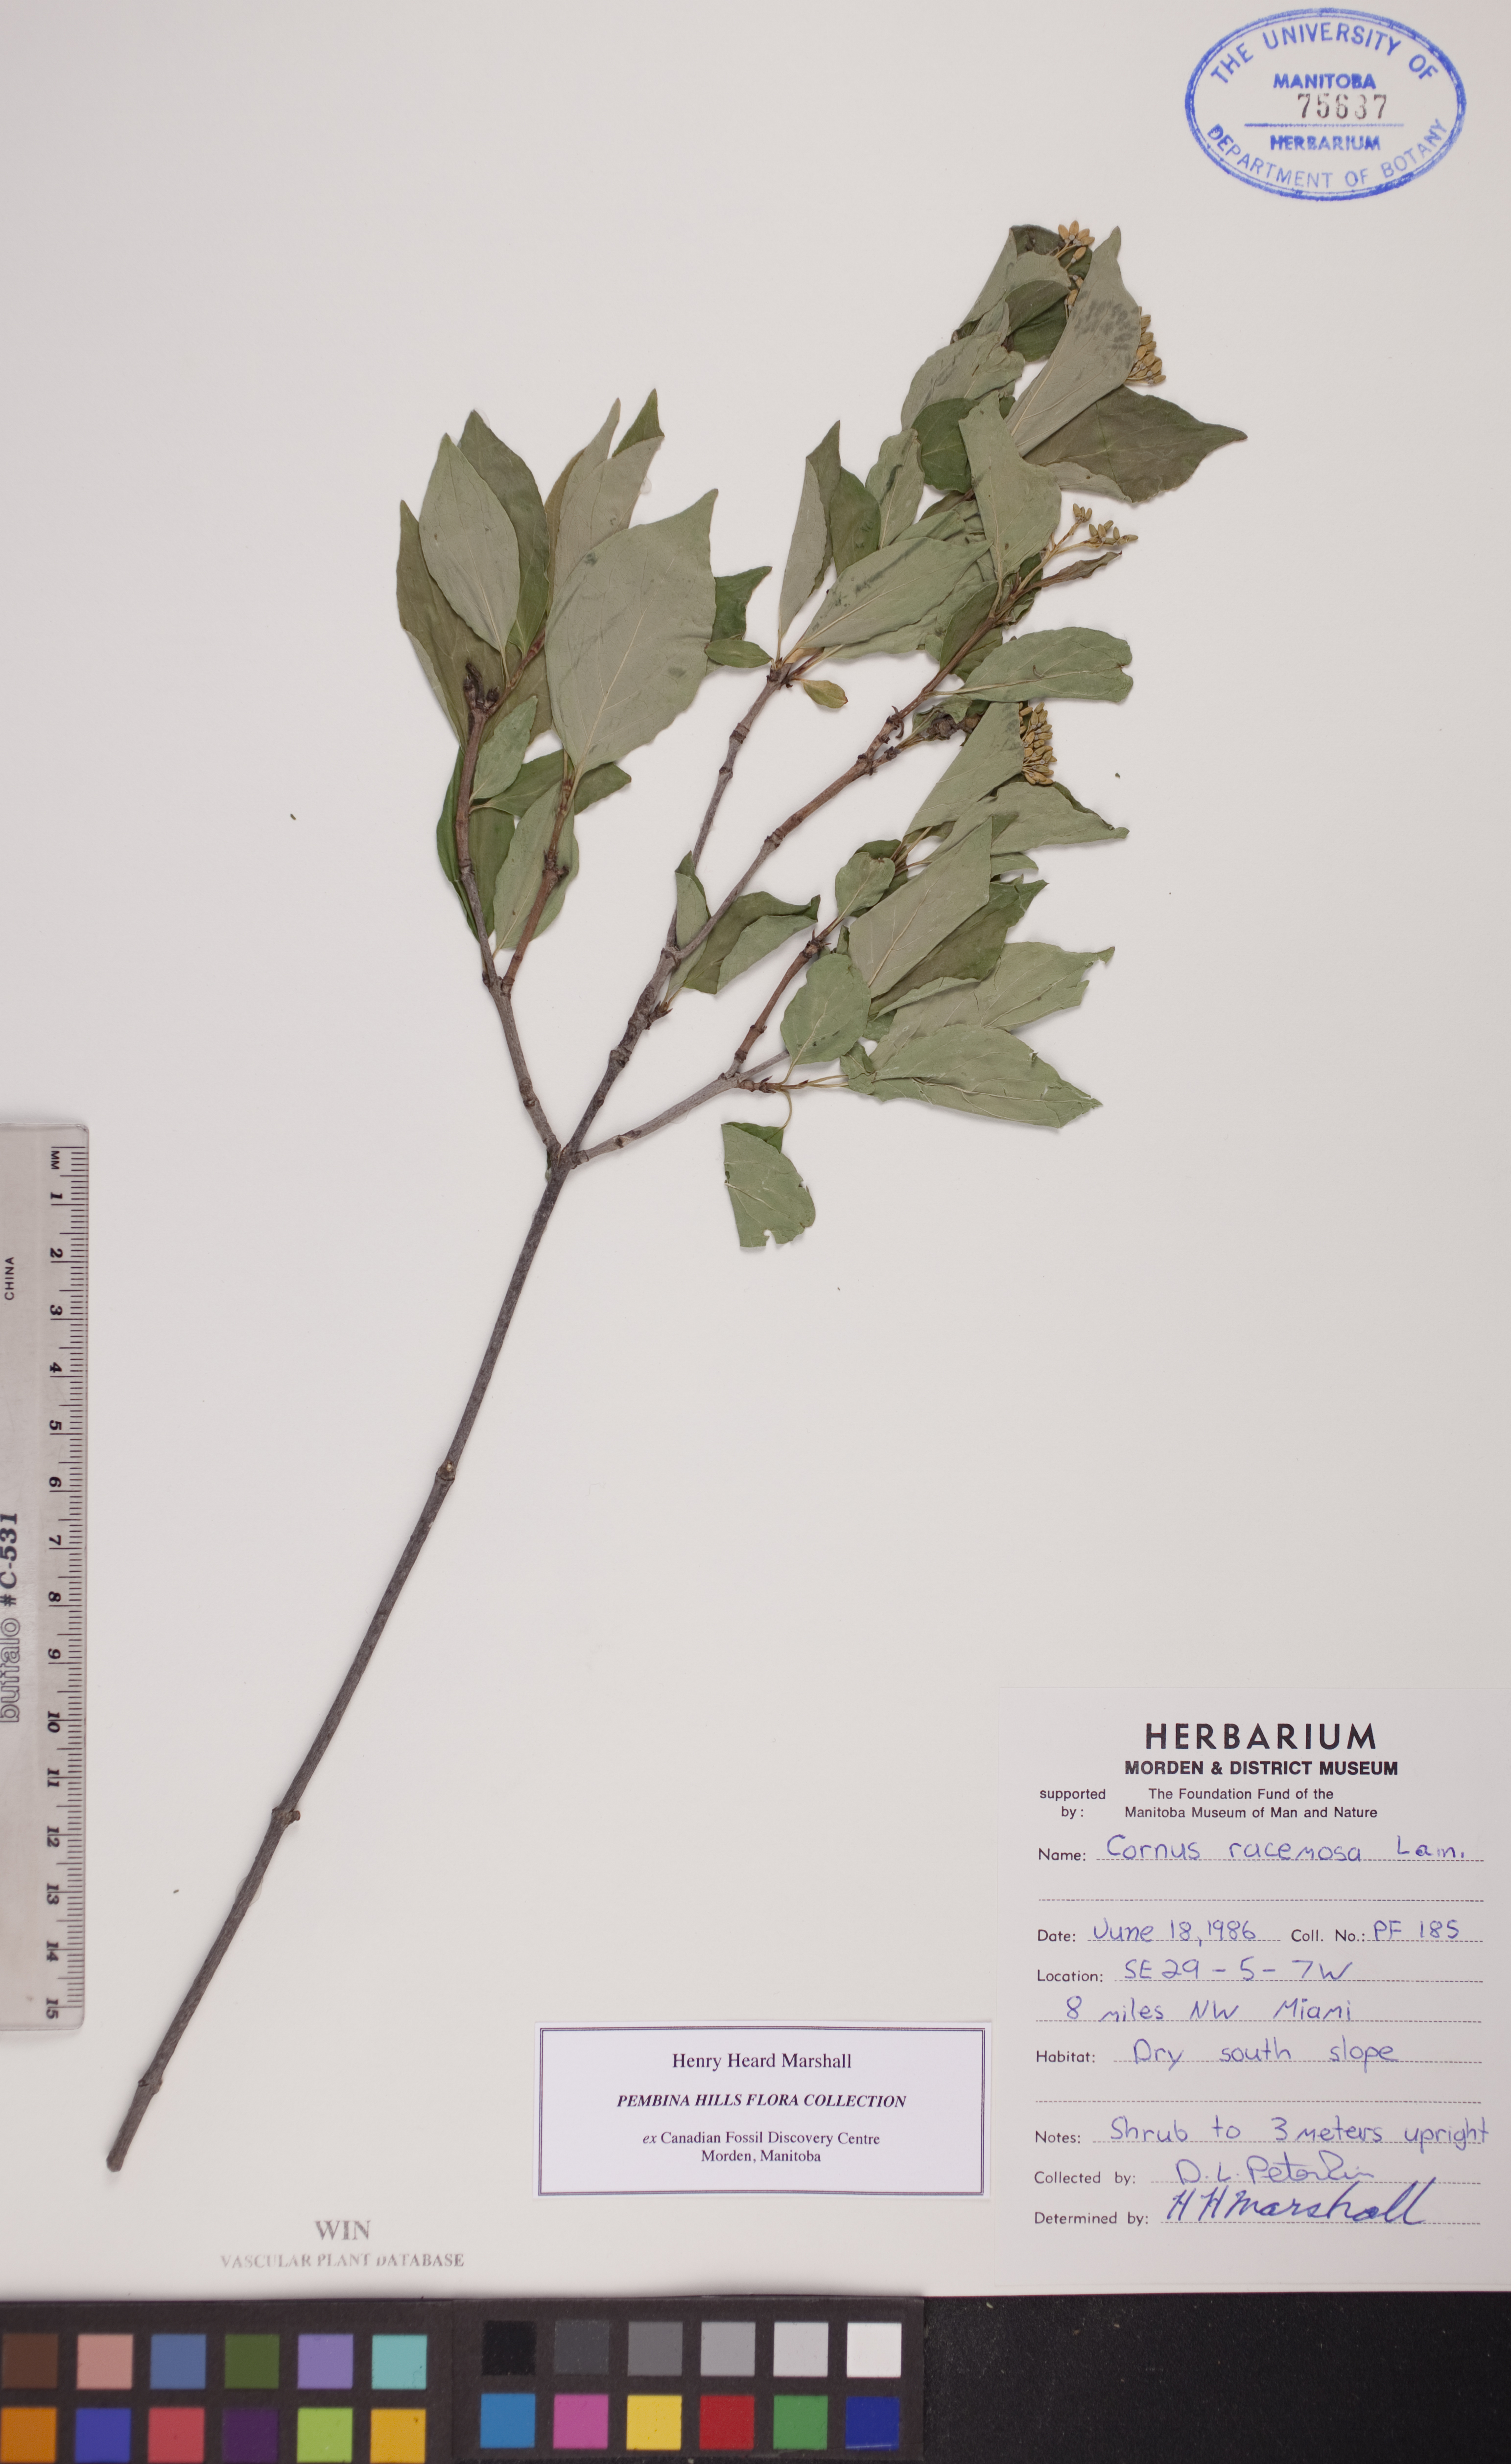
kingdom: Plantae
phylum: Tracheophyta
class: Magnoliopsida
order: Cornales
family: Cornaceae
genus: Cornus
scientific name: Cornus racemosa
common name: Panicled dogwood
